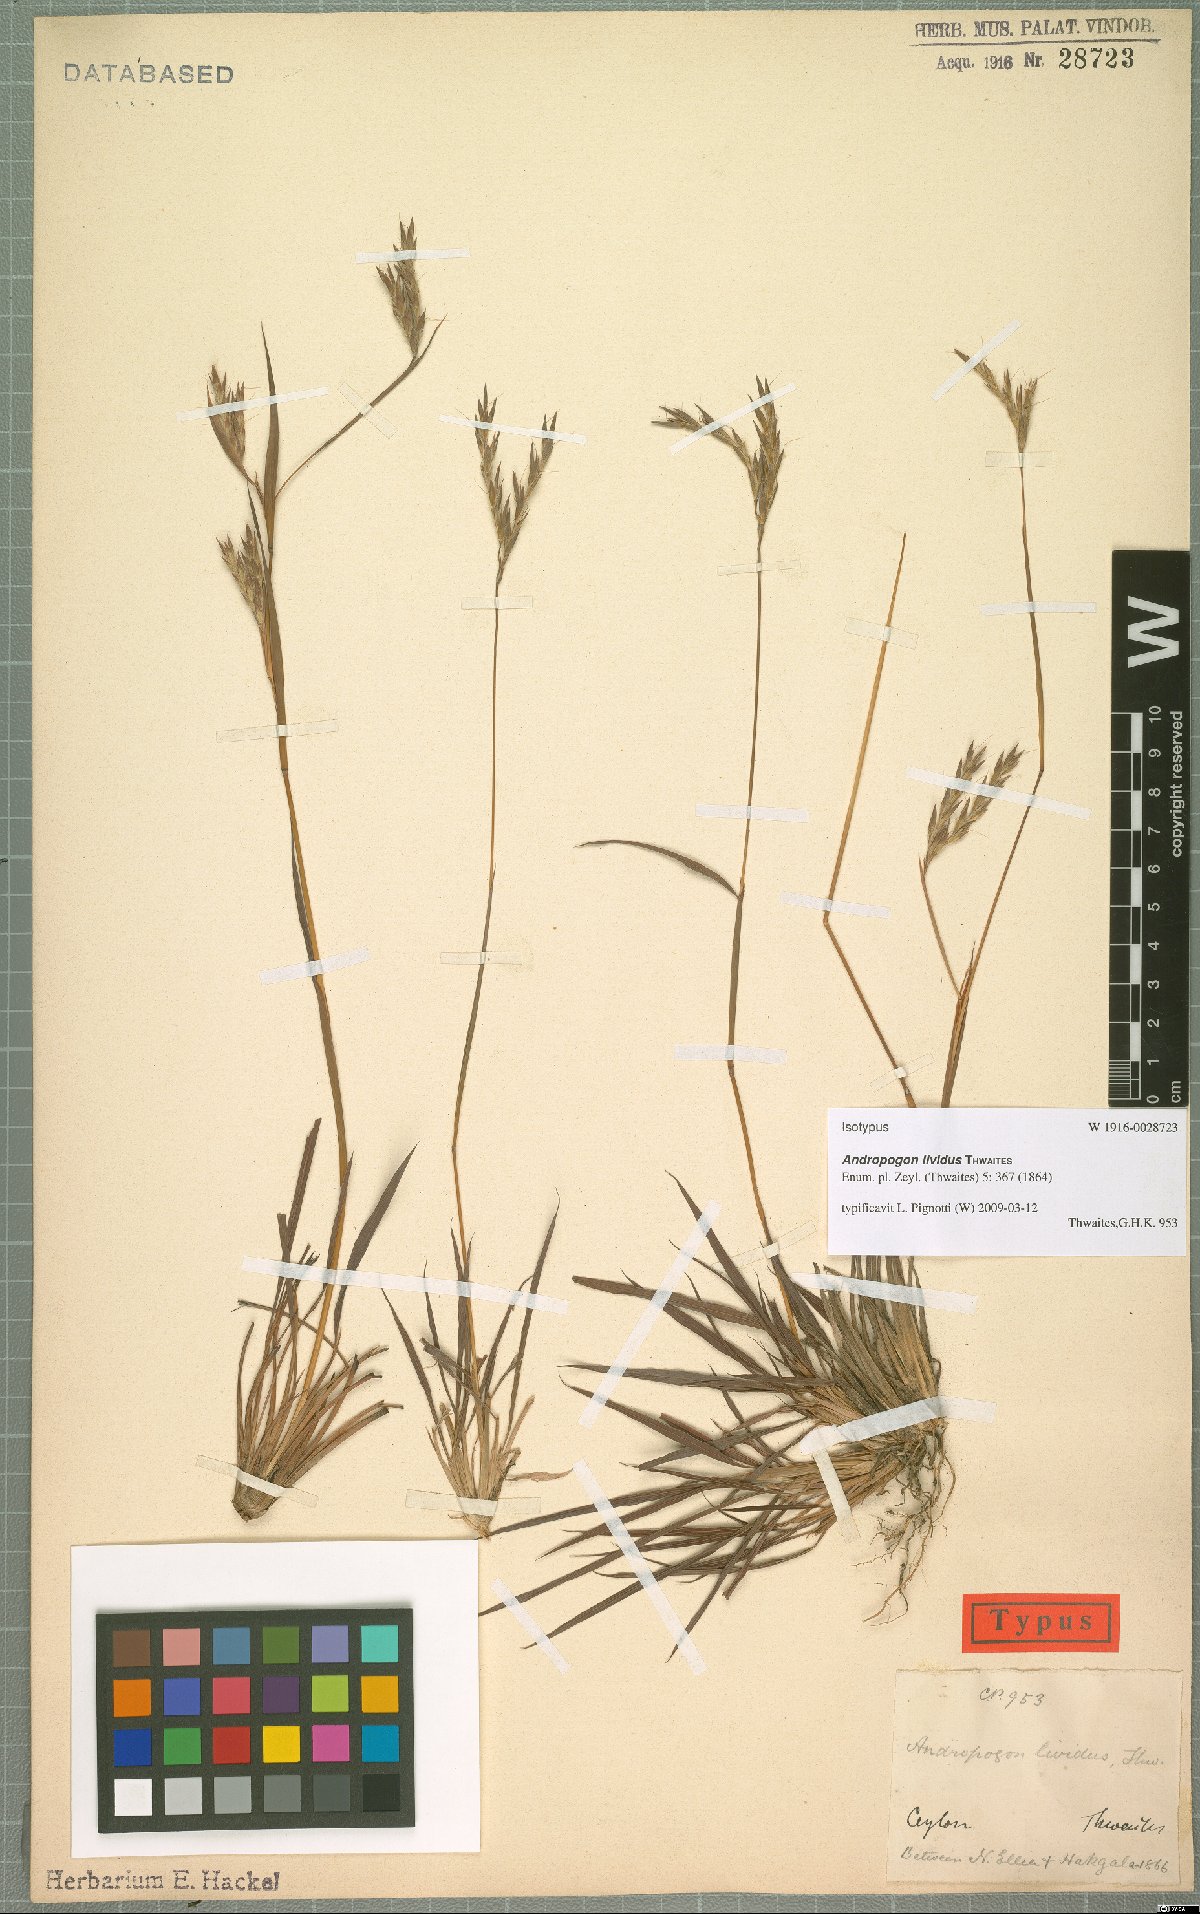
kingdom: Plantae
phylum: Tracheophyta
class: Liliopsida
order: Poales
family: Poaceae
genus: Andropogon
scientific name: Andropogon lividus
